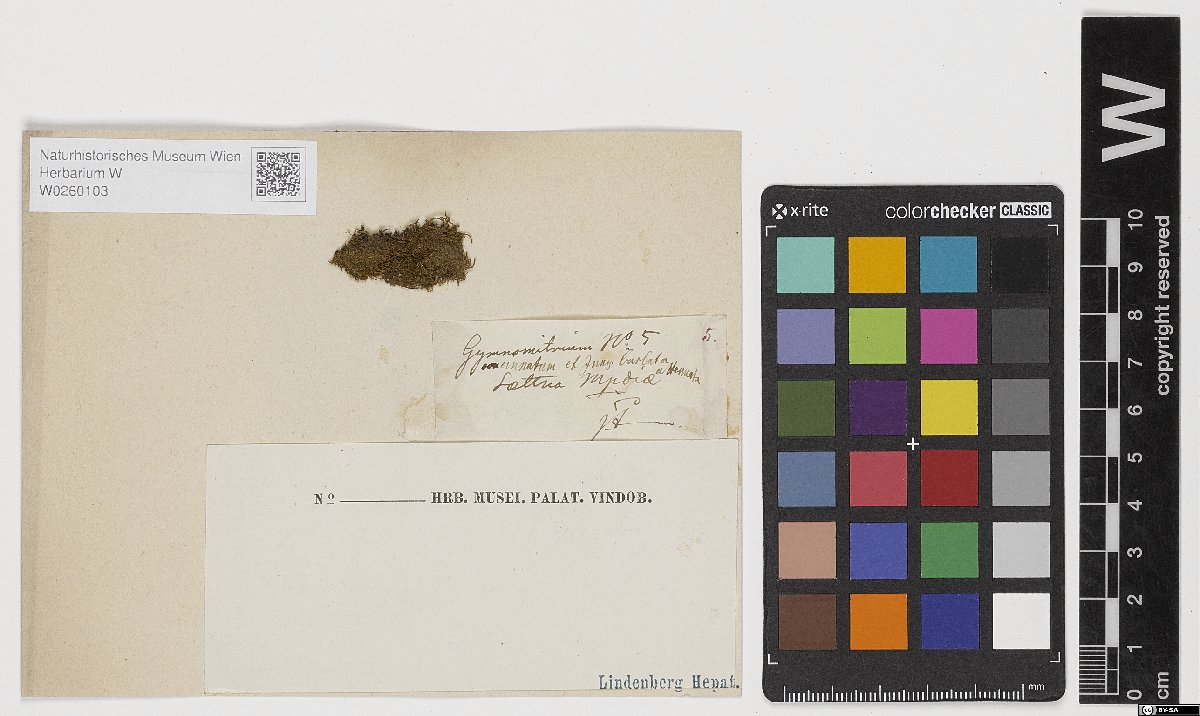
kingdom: Plantae
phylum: Marchantiophyta
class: Jungermanniopsida
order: Jungermanniales
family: Gymnomitriaceae
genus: Gymnomitrion
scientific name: Gymnomitrion concinnatum
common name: Braided frostwort
